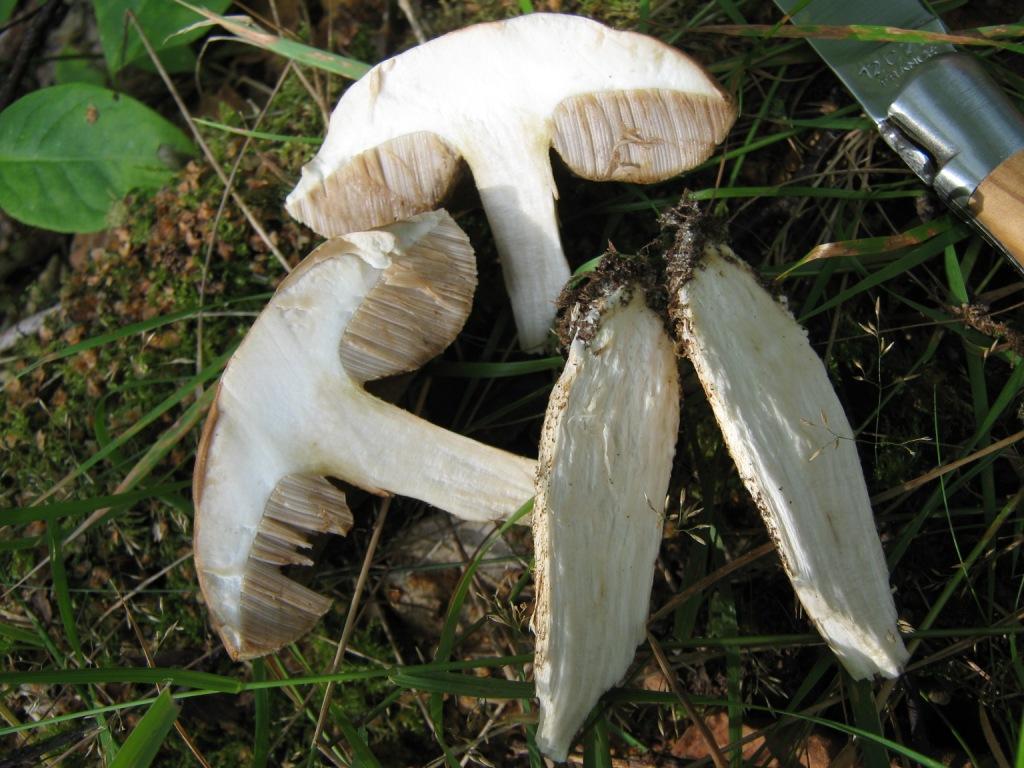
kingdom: Fungi
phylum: Basidiomycota
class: Agaricomycetes
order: Boletales
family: Boletaceae
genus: Leccinum
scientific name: Leccinum scabrum
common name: brun skælrørhat
